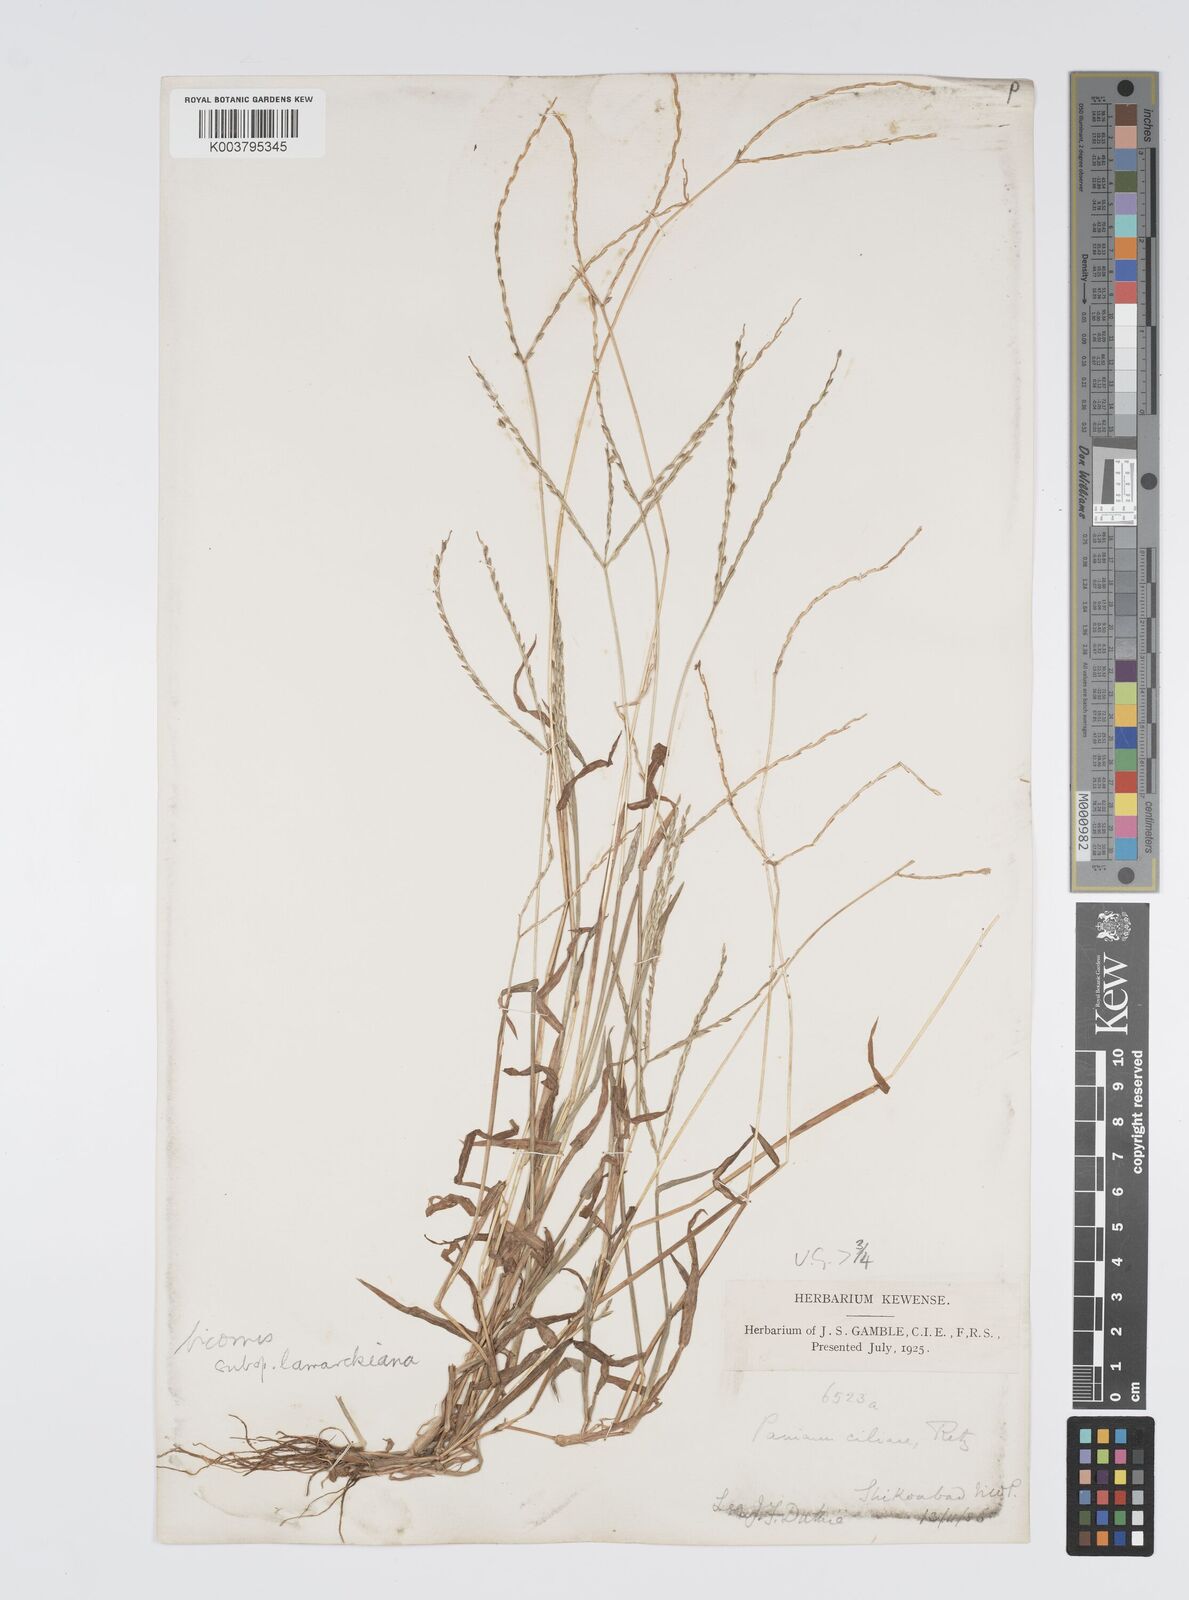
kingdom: Plantae
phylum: Tracheophyta
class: Liliopsida
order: Poales
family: Poaceae
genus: Digitaria
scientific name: Digitaria ciliaris
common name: Tropical finger-grass
